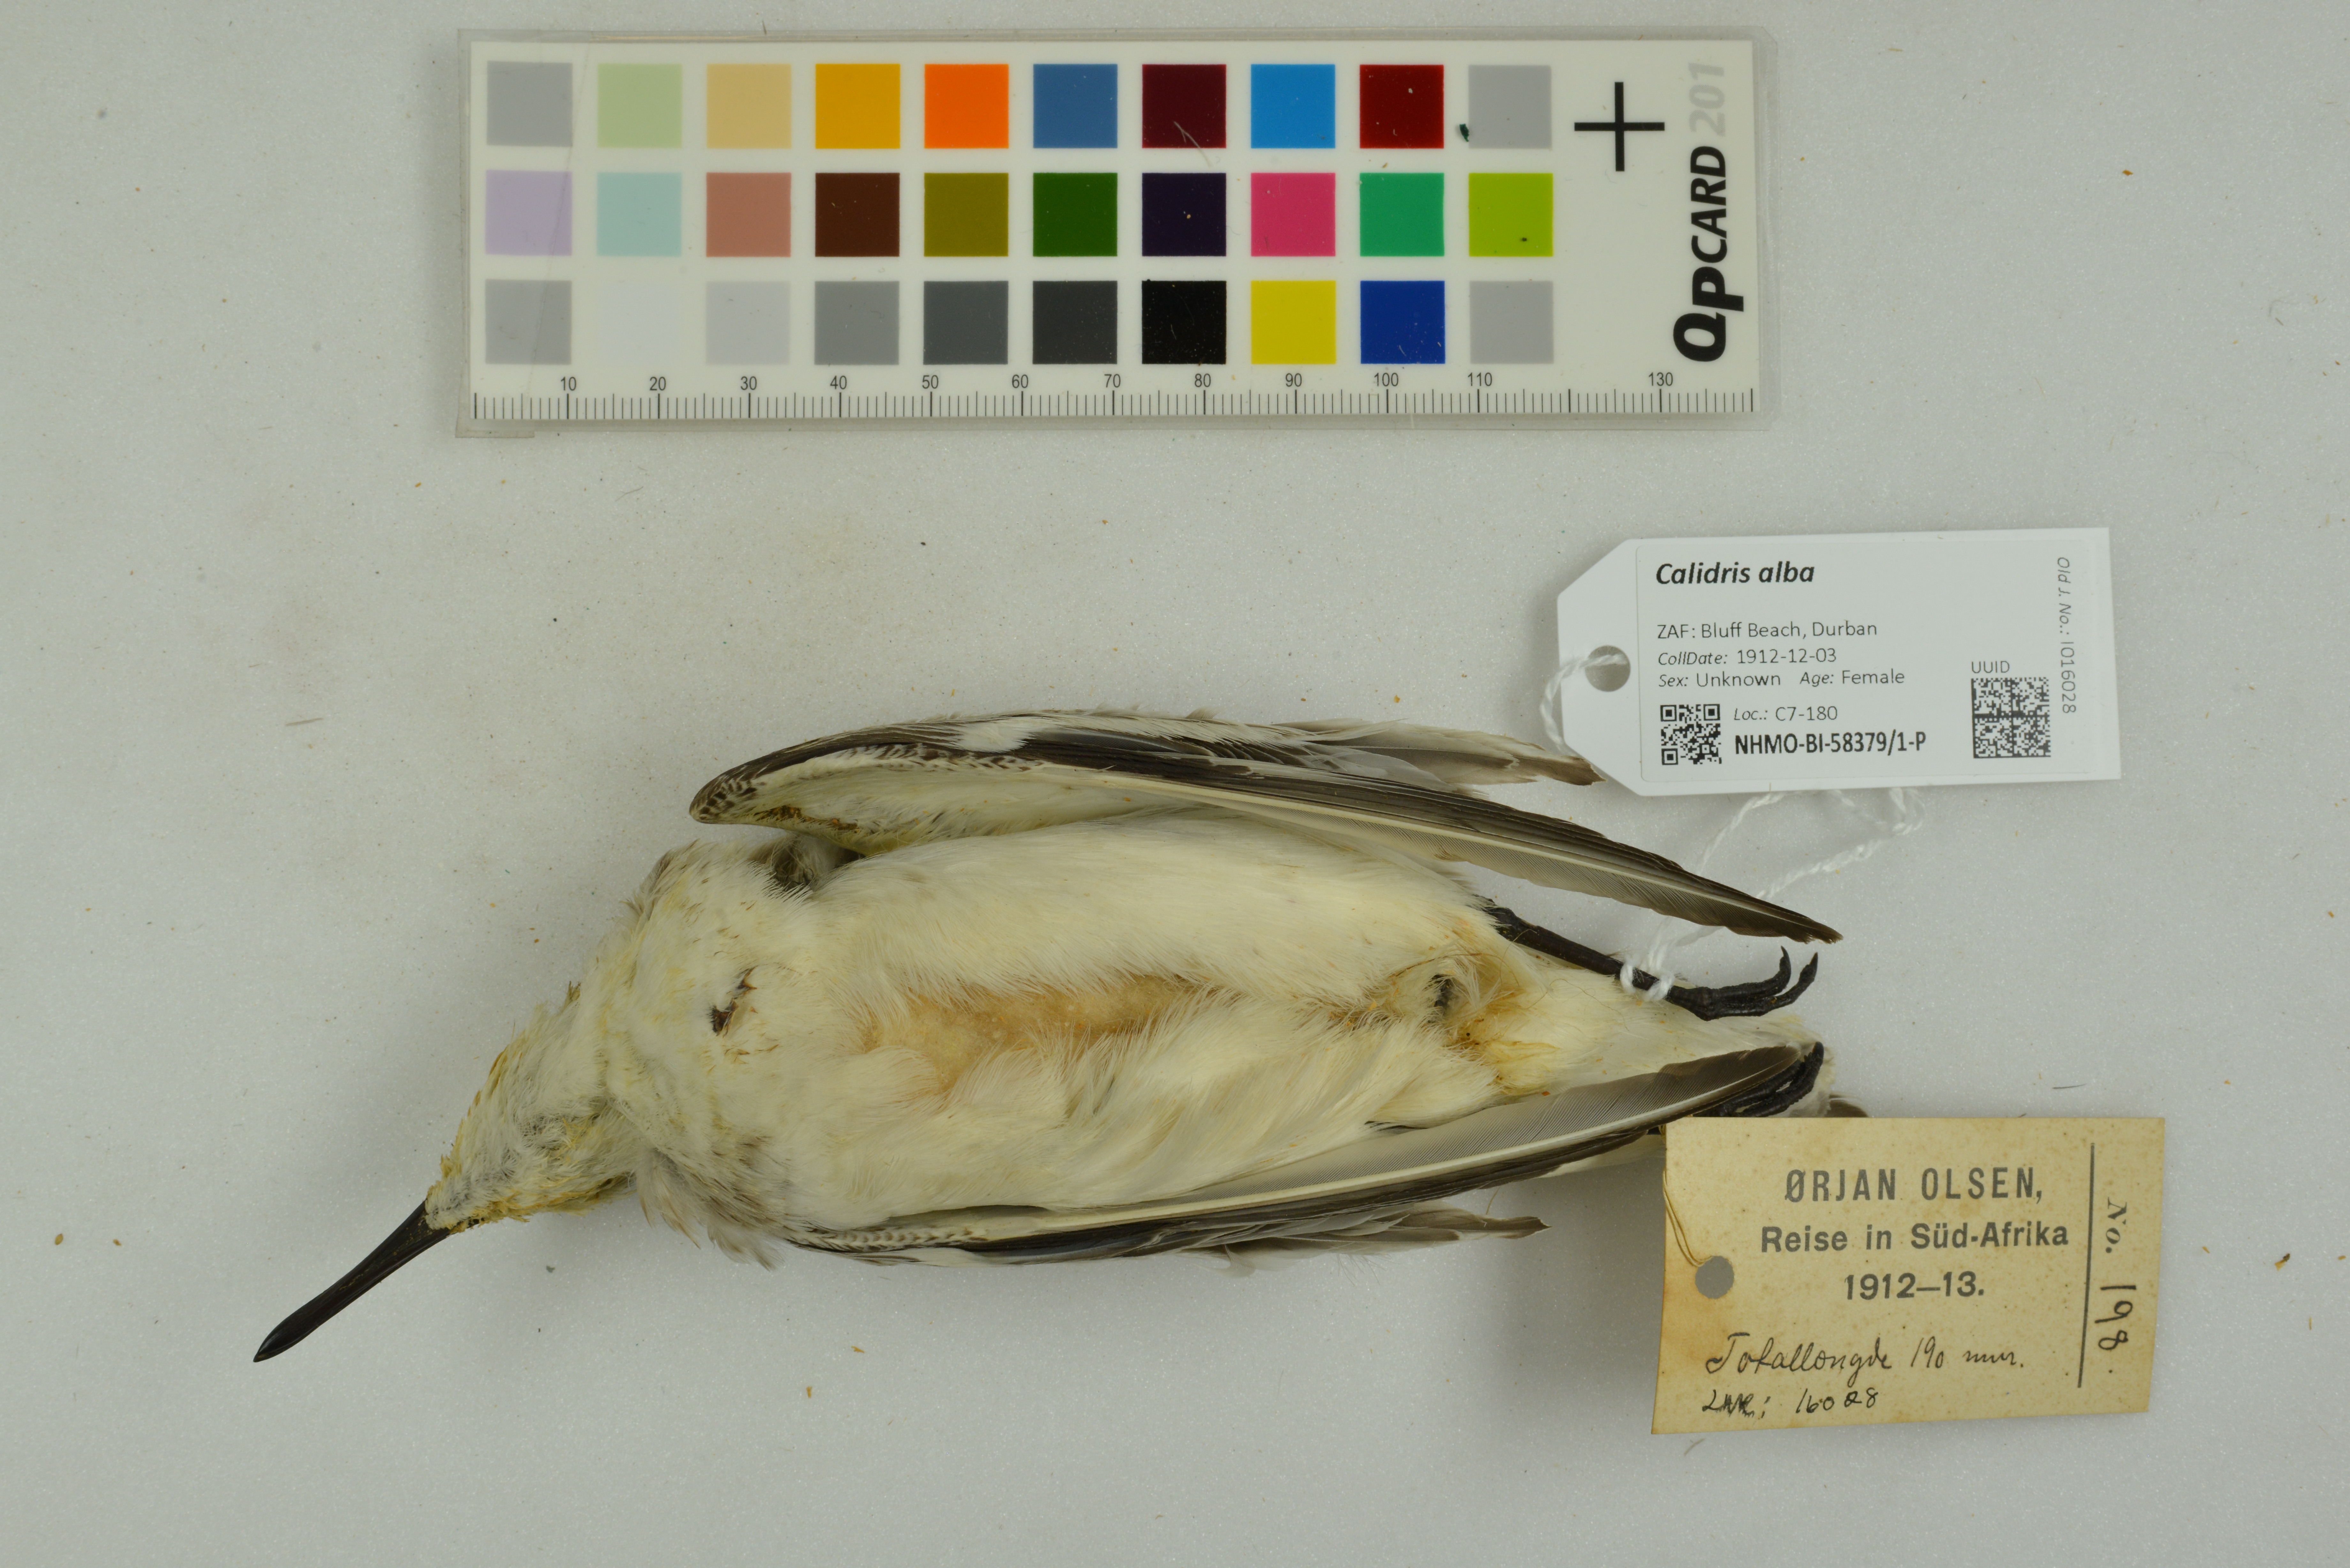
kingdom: Animalia
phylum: Chordata
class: Aves
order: Charadriiformes
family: Scolopacidae
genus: Calidris
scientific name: Calidris alba
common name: Sanderling
